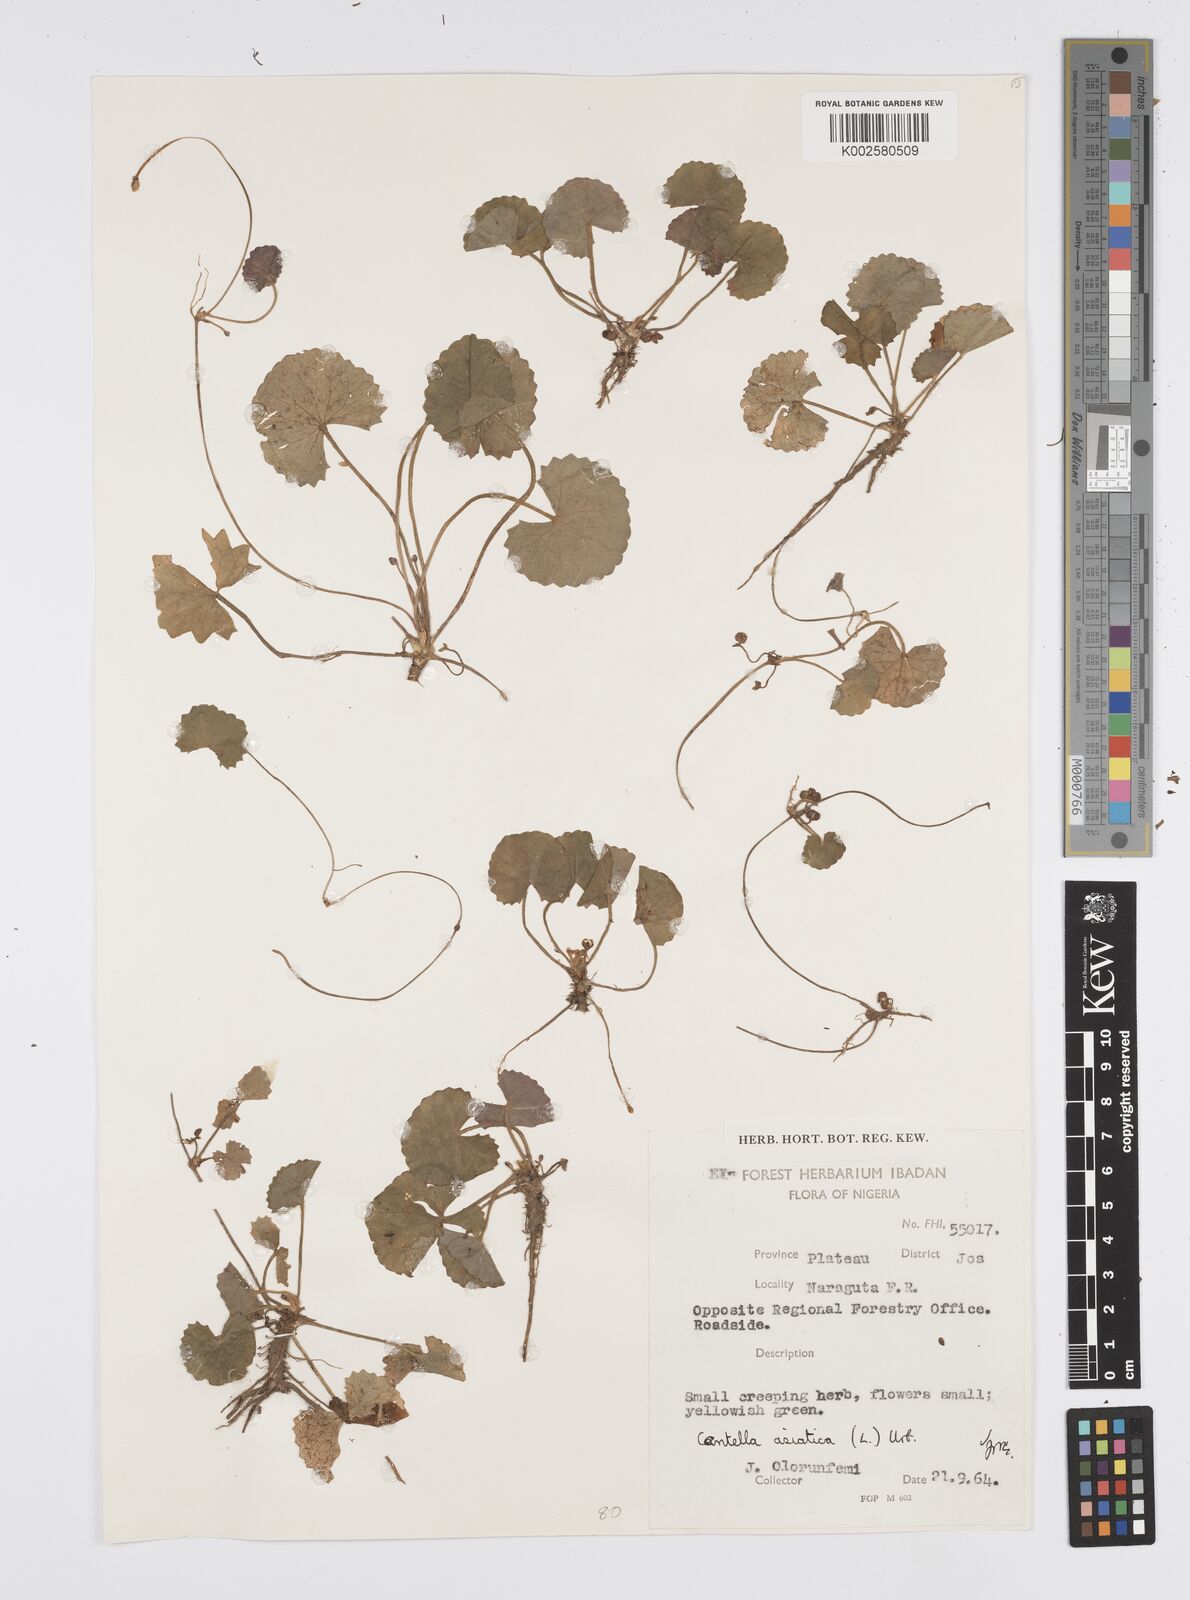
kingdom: Plantae
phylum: Tracheophyta
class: Magnoliopsida
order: Apiales
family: Apiaceae
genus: Centella
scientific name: Centella asiatica
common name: Spadeleaf
